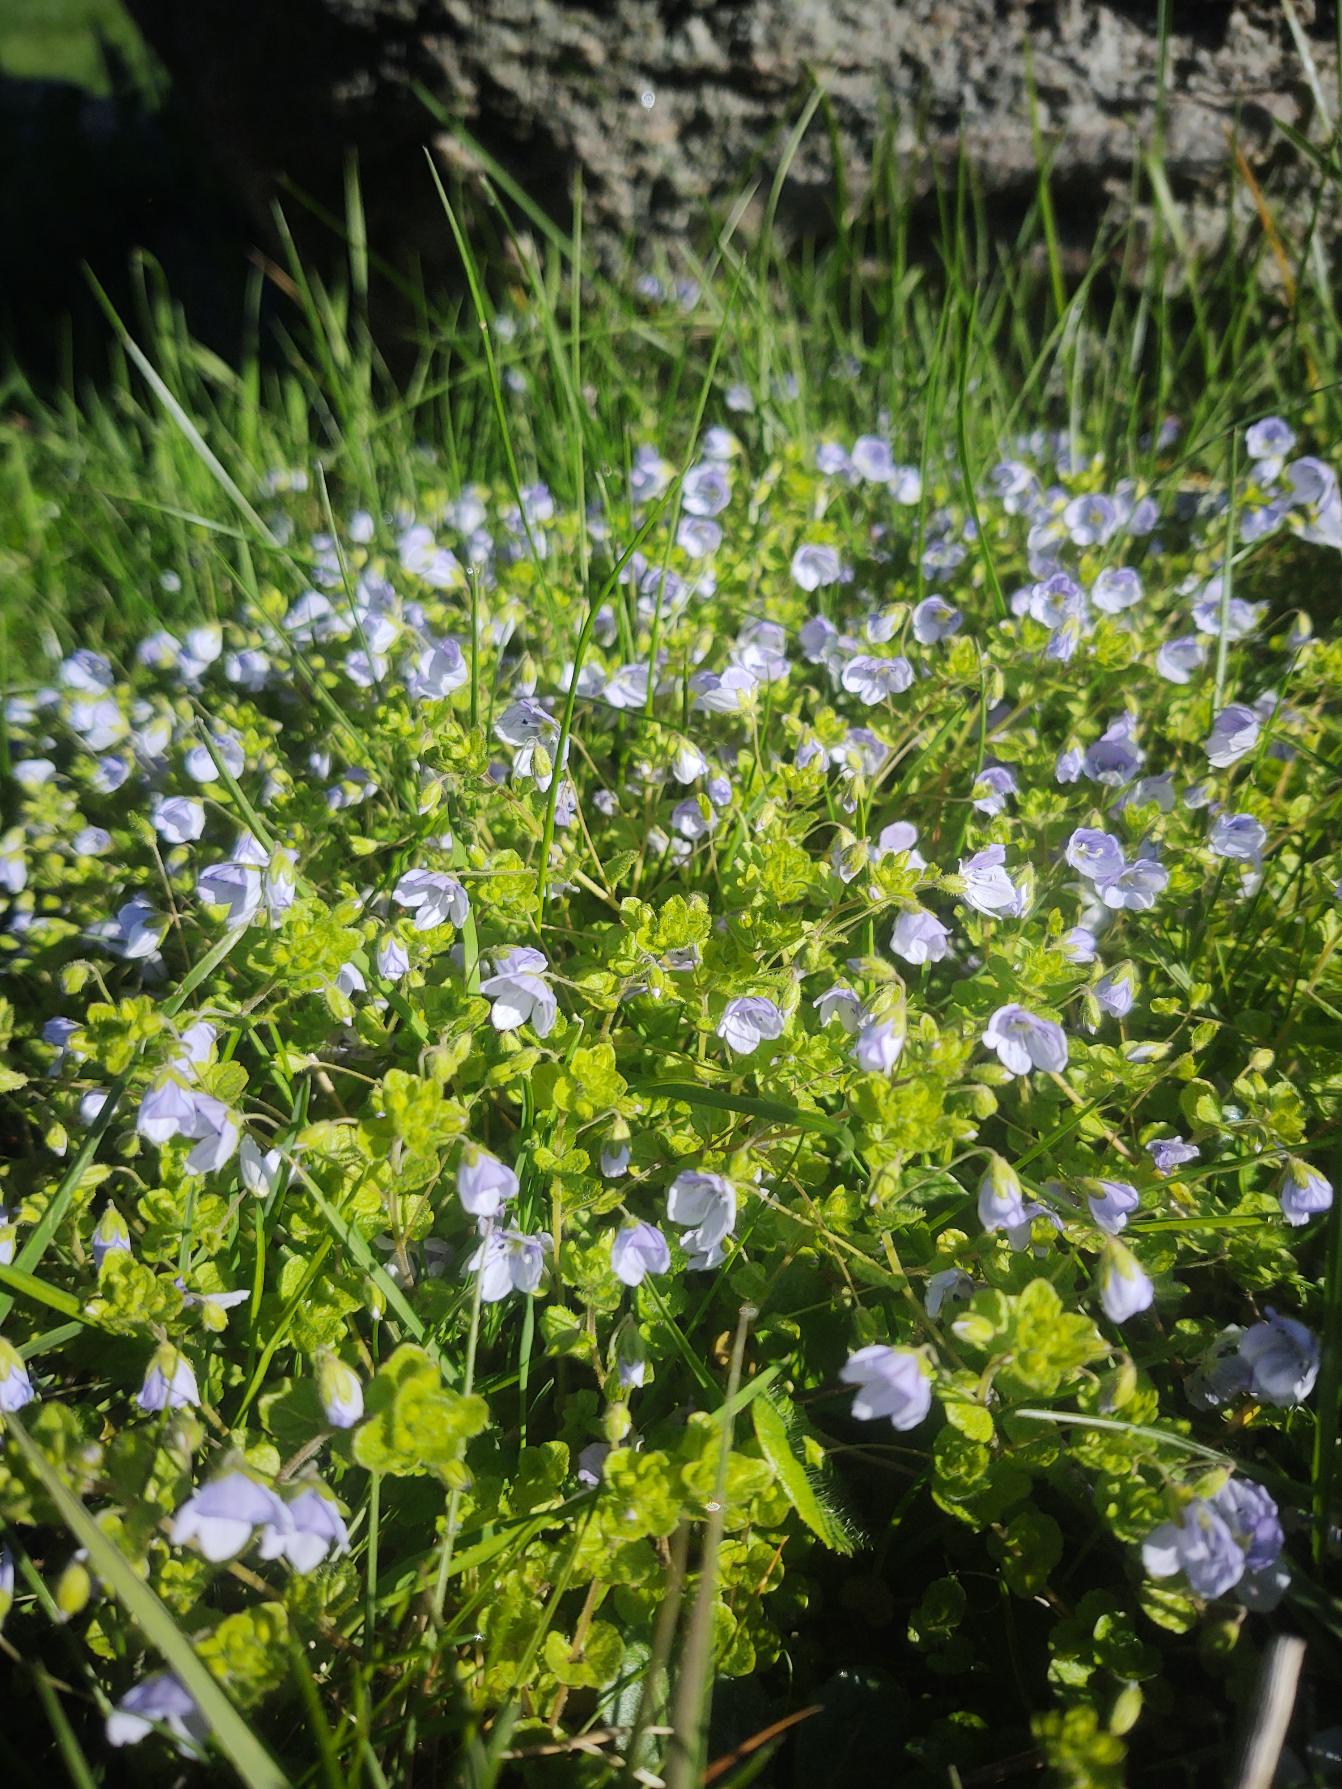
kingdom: Plantae
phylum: Tracheophyta
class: Magnoliopsida
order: Lamiales
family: Plantaginaceae
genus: Veronica
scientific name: Veronica filiformis
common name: Tråd-ærenpris
